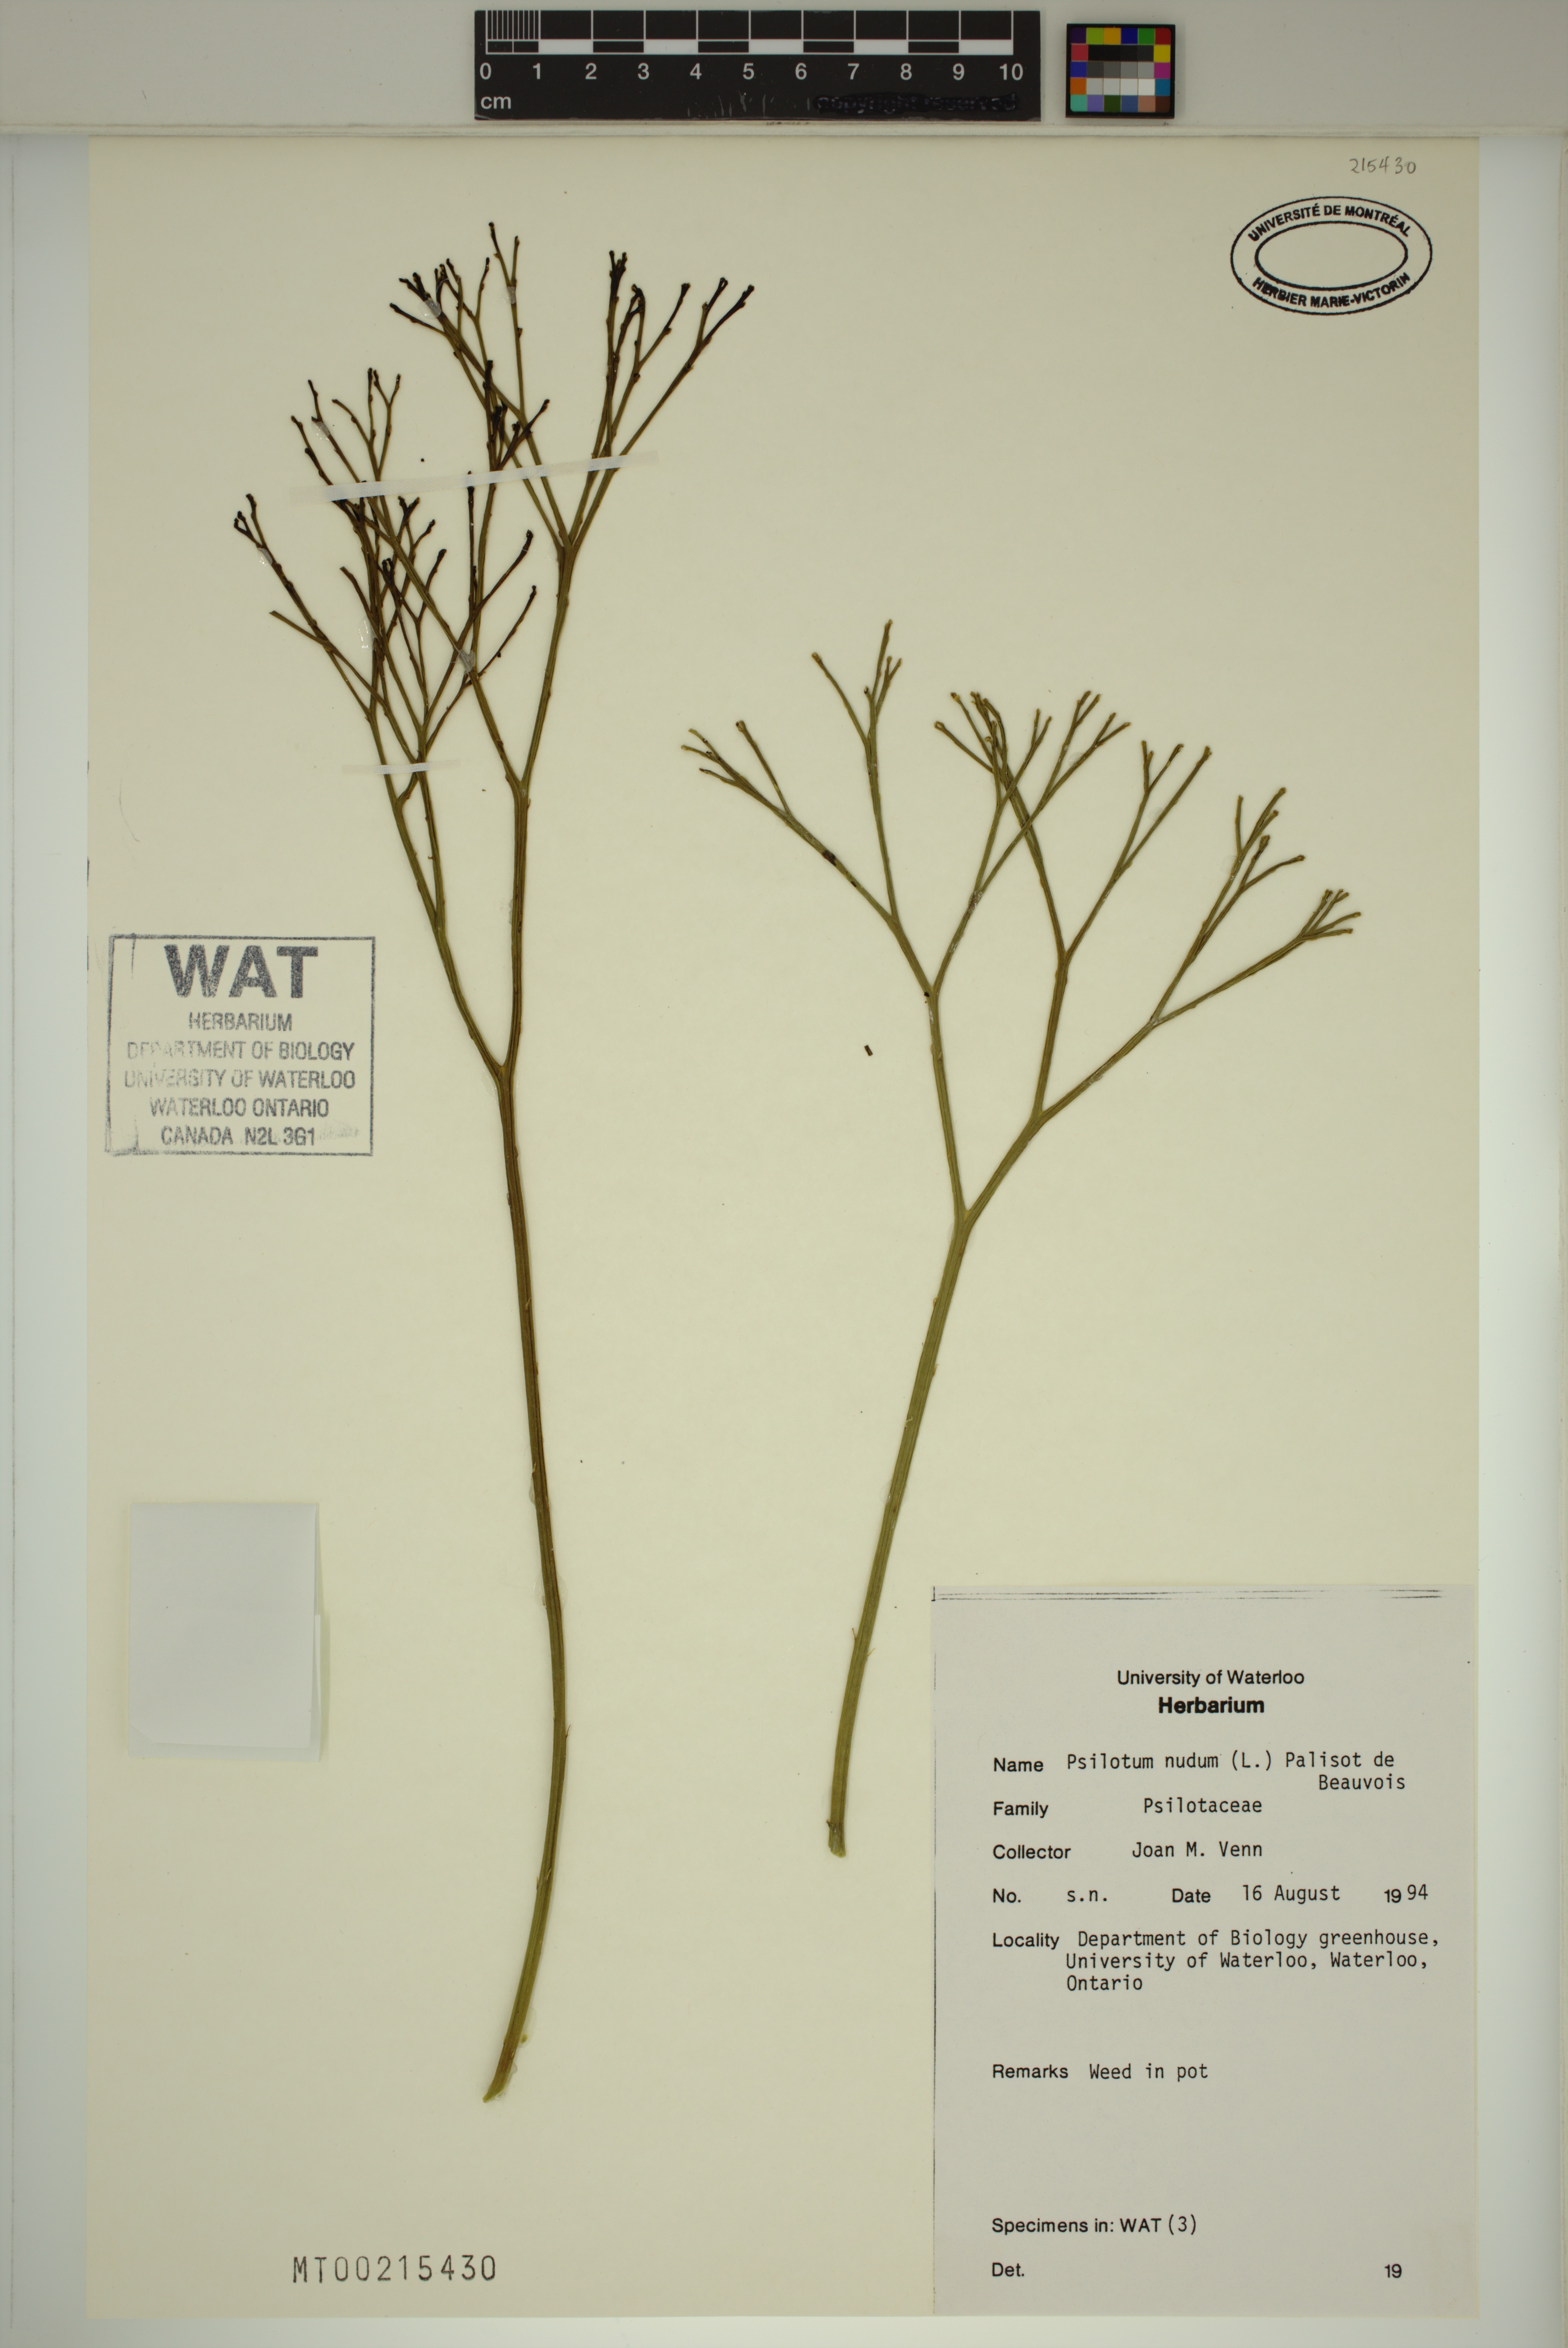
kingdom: Plantae
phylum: Tracheophyta
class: Polypodiopsida
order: Psilotales
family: Psilotaceae
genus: Psilotum
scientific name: Psilotum nudum
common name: Skeleton fork fern
